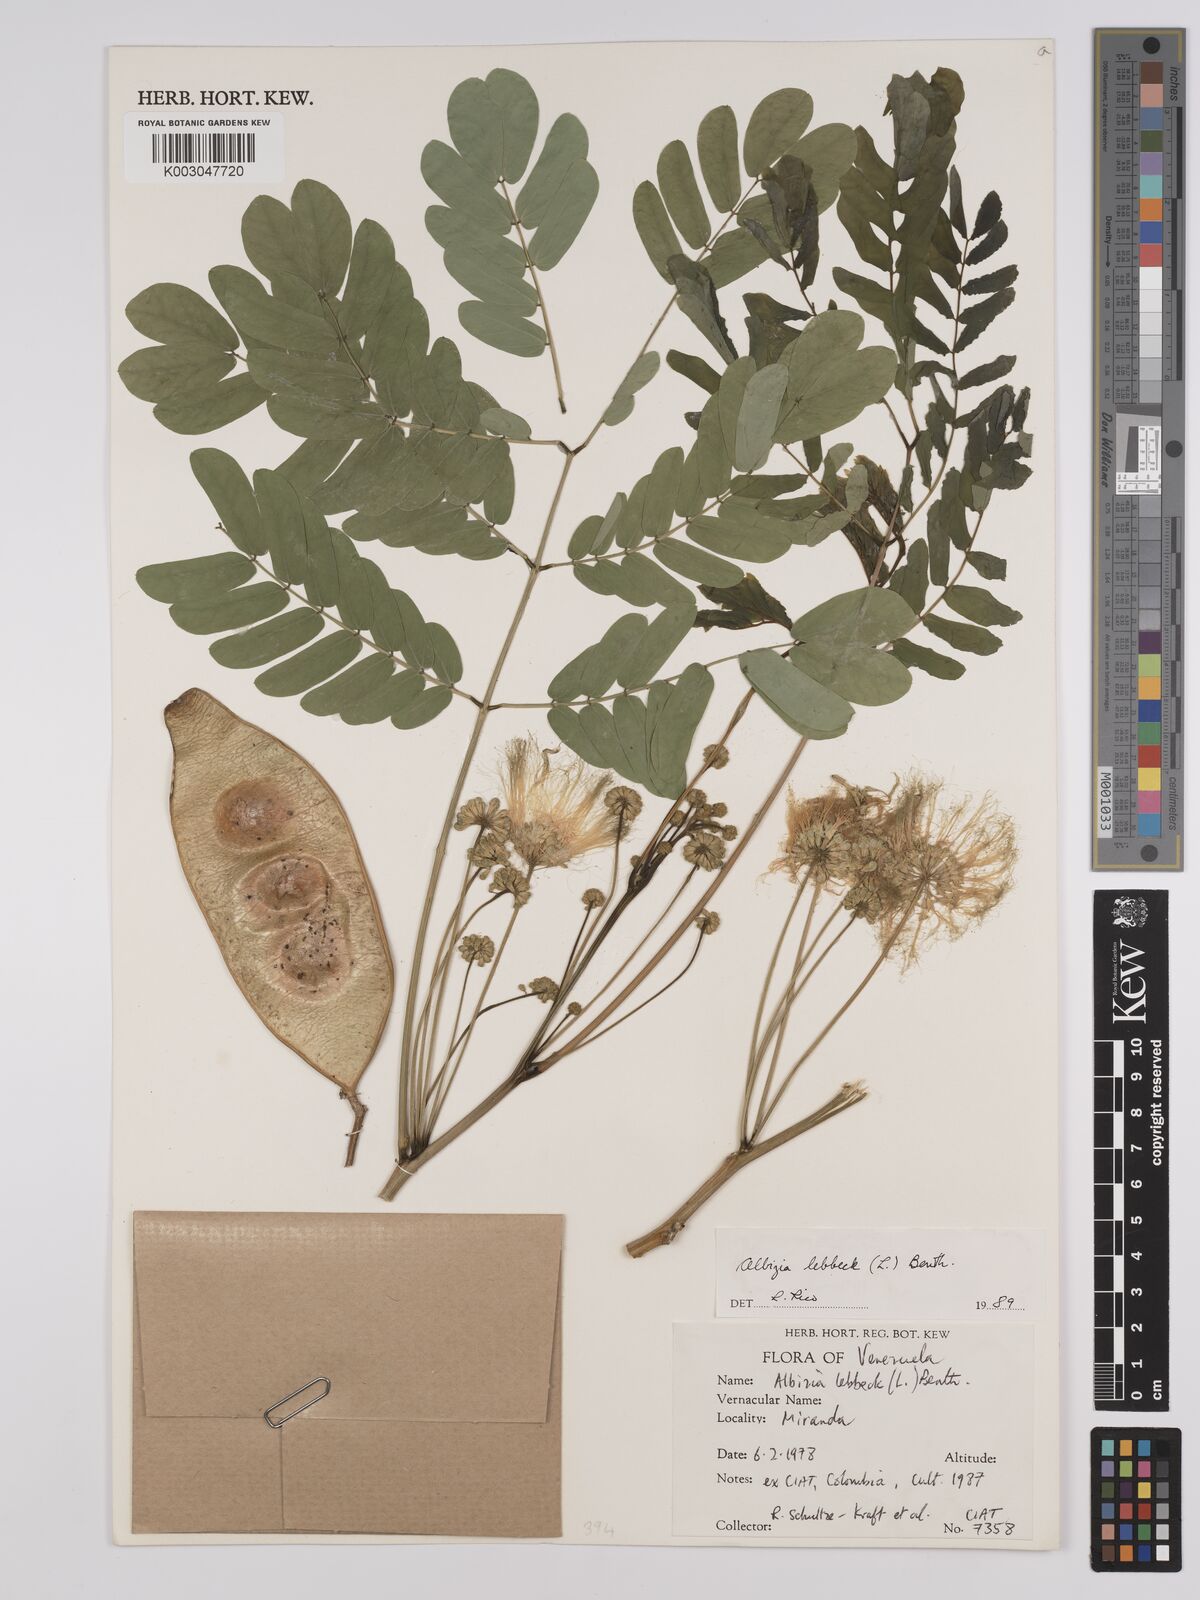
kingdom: Plantae
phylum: Tracheophyta
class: Magnoliopsida
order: Fabales
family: Fabaceae
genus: Albizia
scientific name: Albizia lebbeck
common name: Woman's tongue
